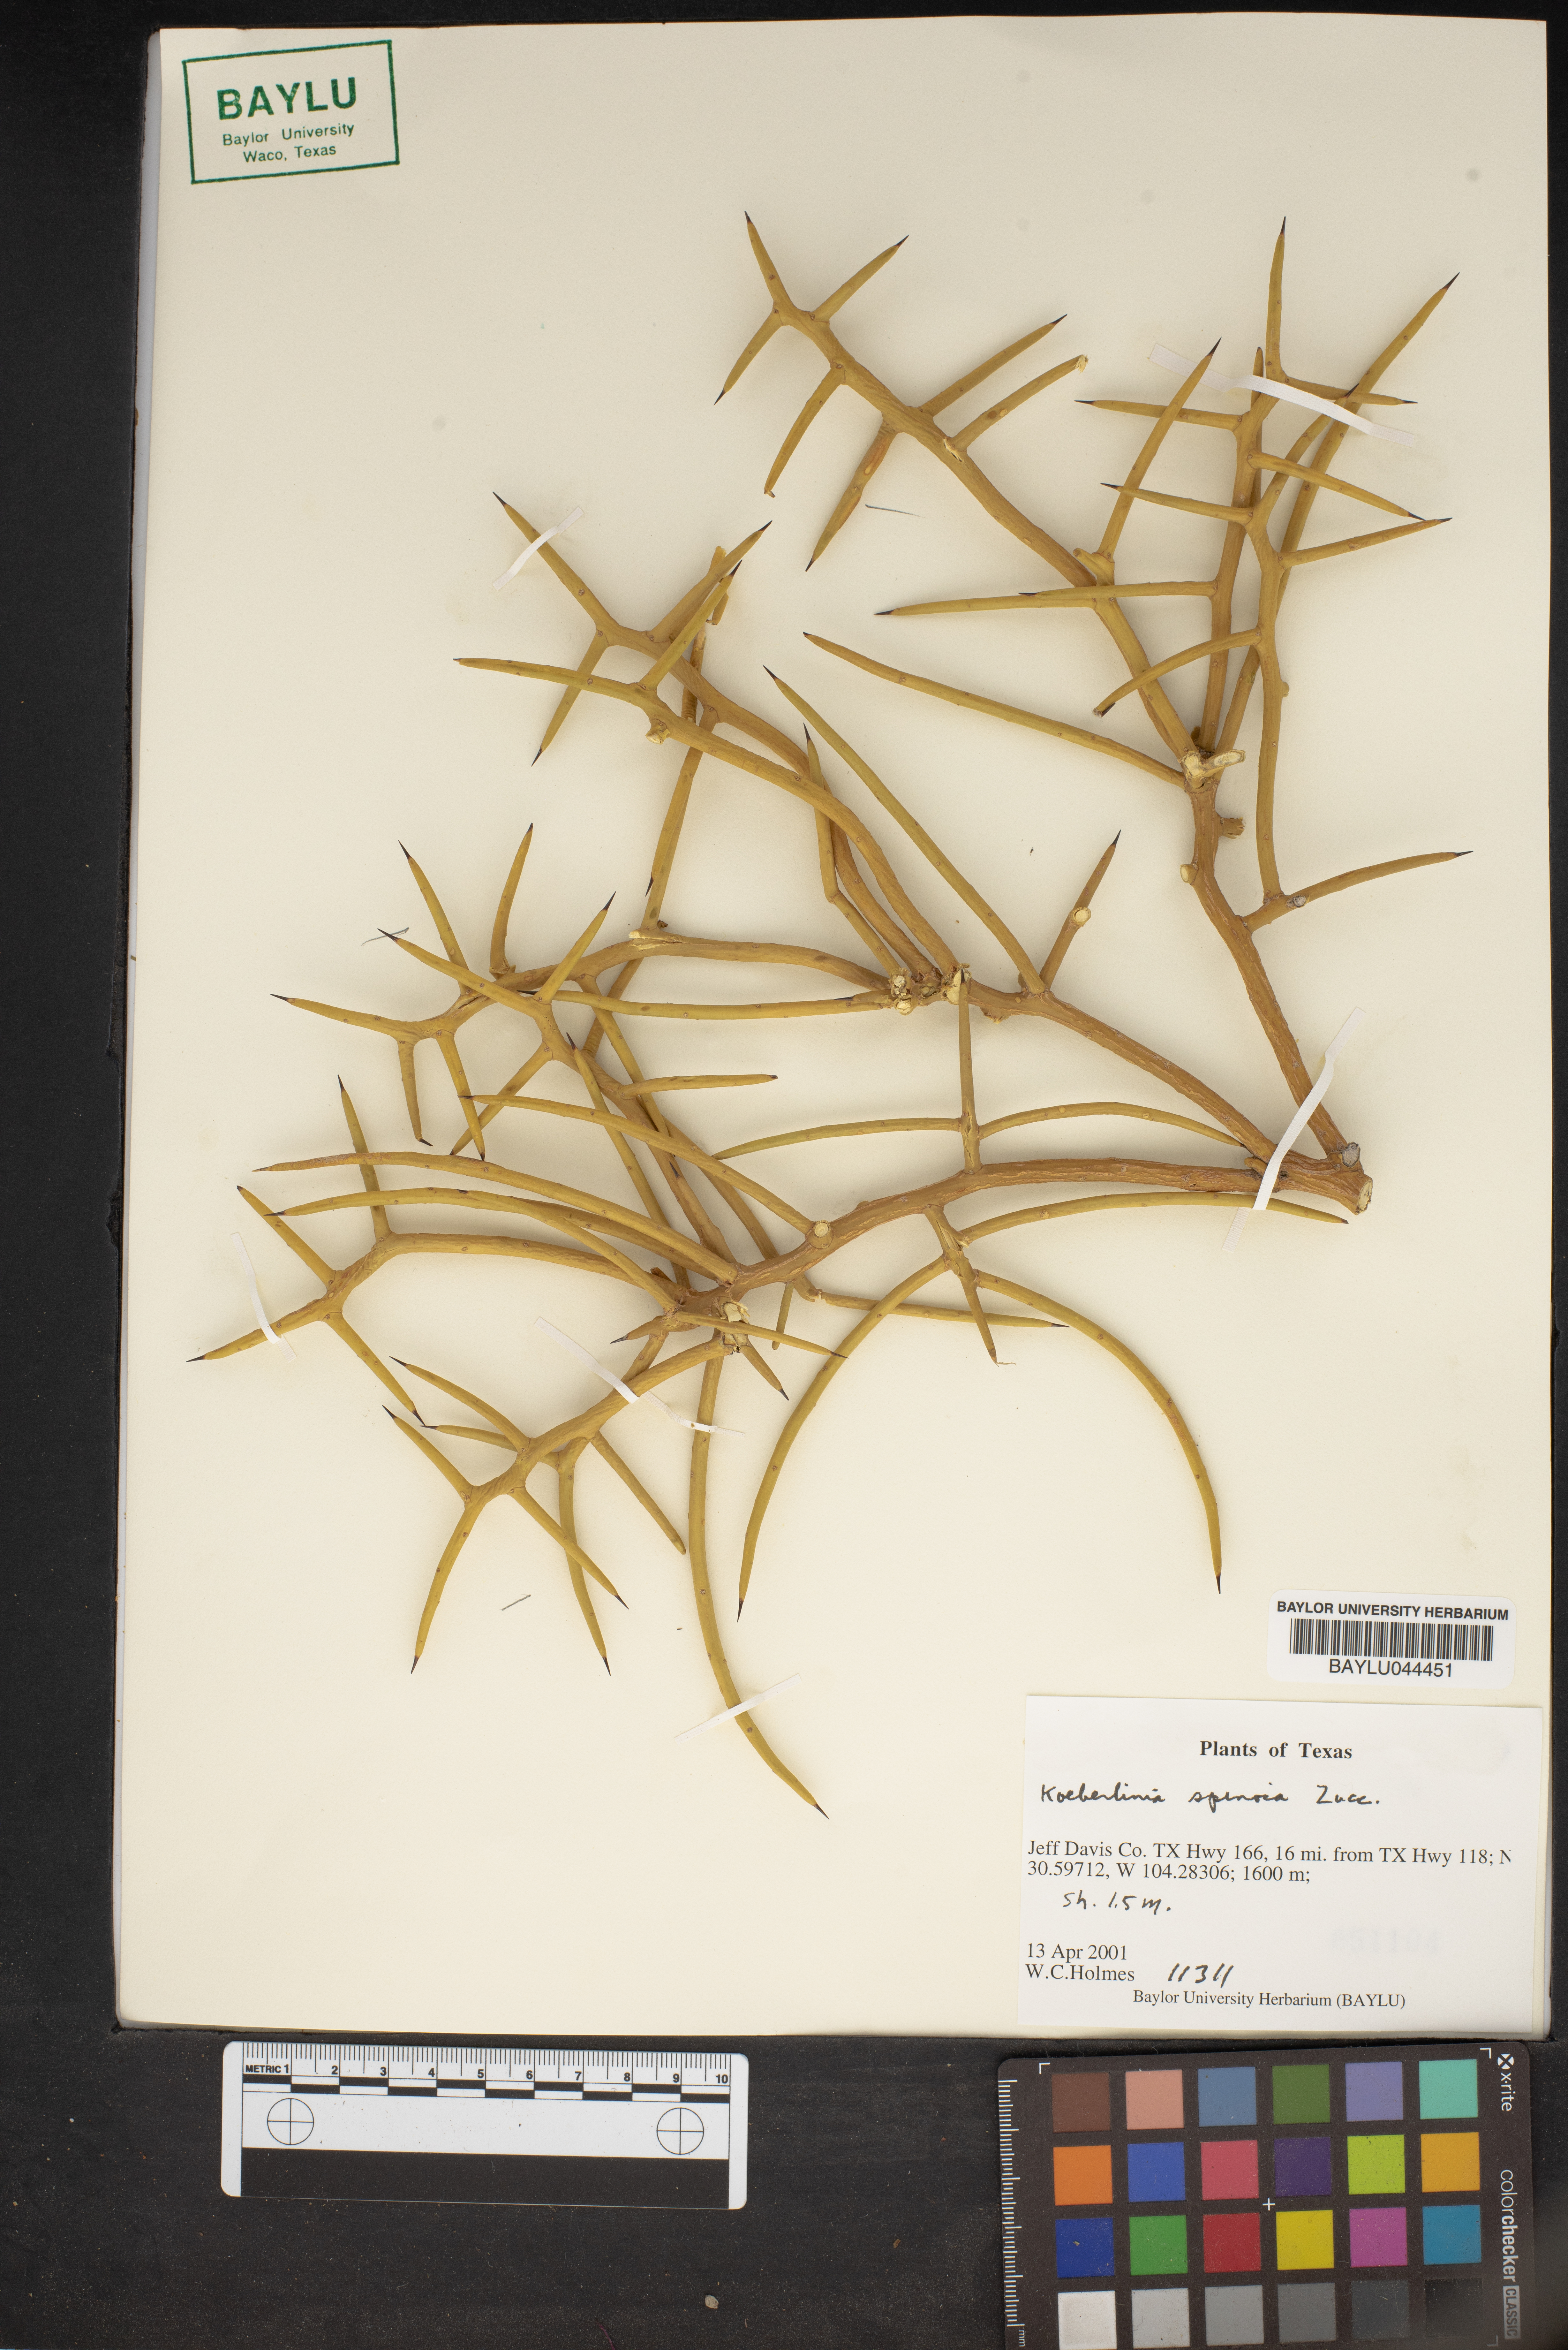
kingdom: Plantae
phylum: Tracheophyta
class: Magnoliopsida
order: Brassicales
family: Koeberliniaceae
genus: Koeberlinia
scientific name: Koeberlinia spinosa
